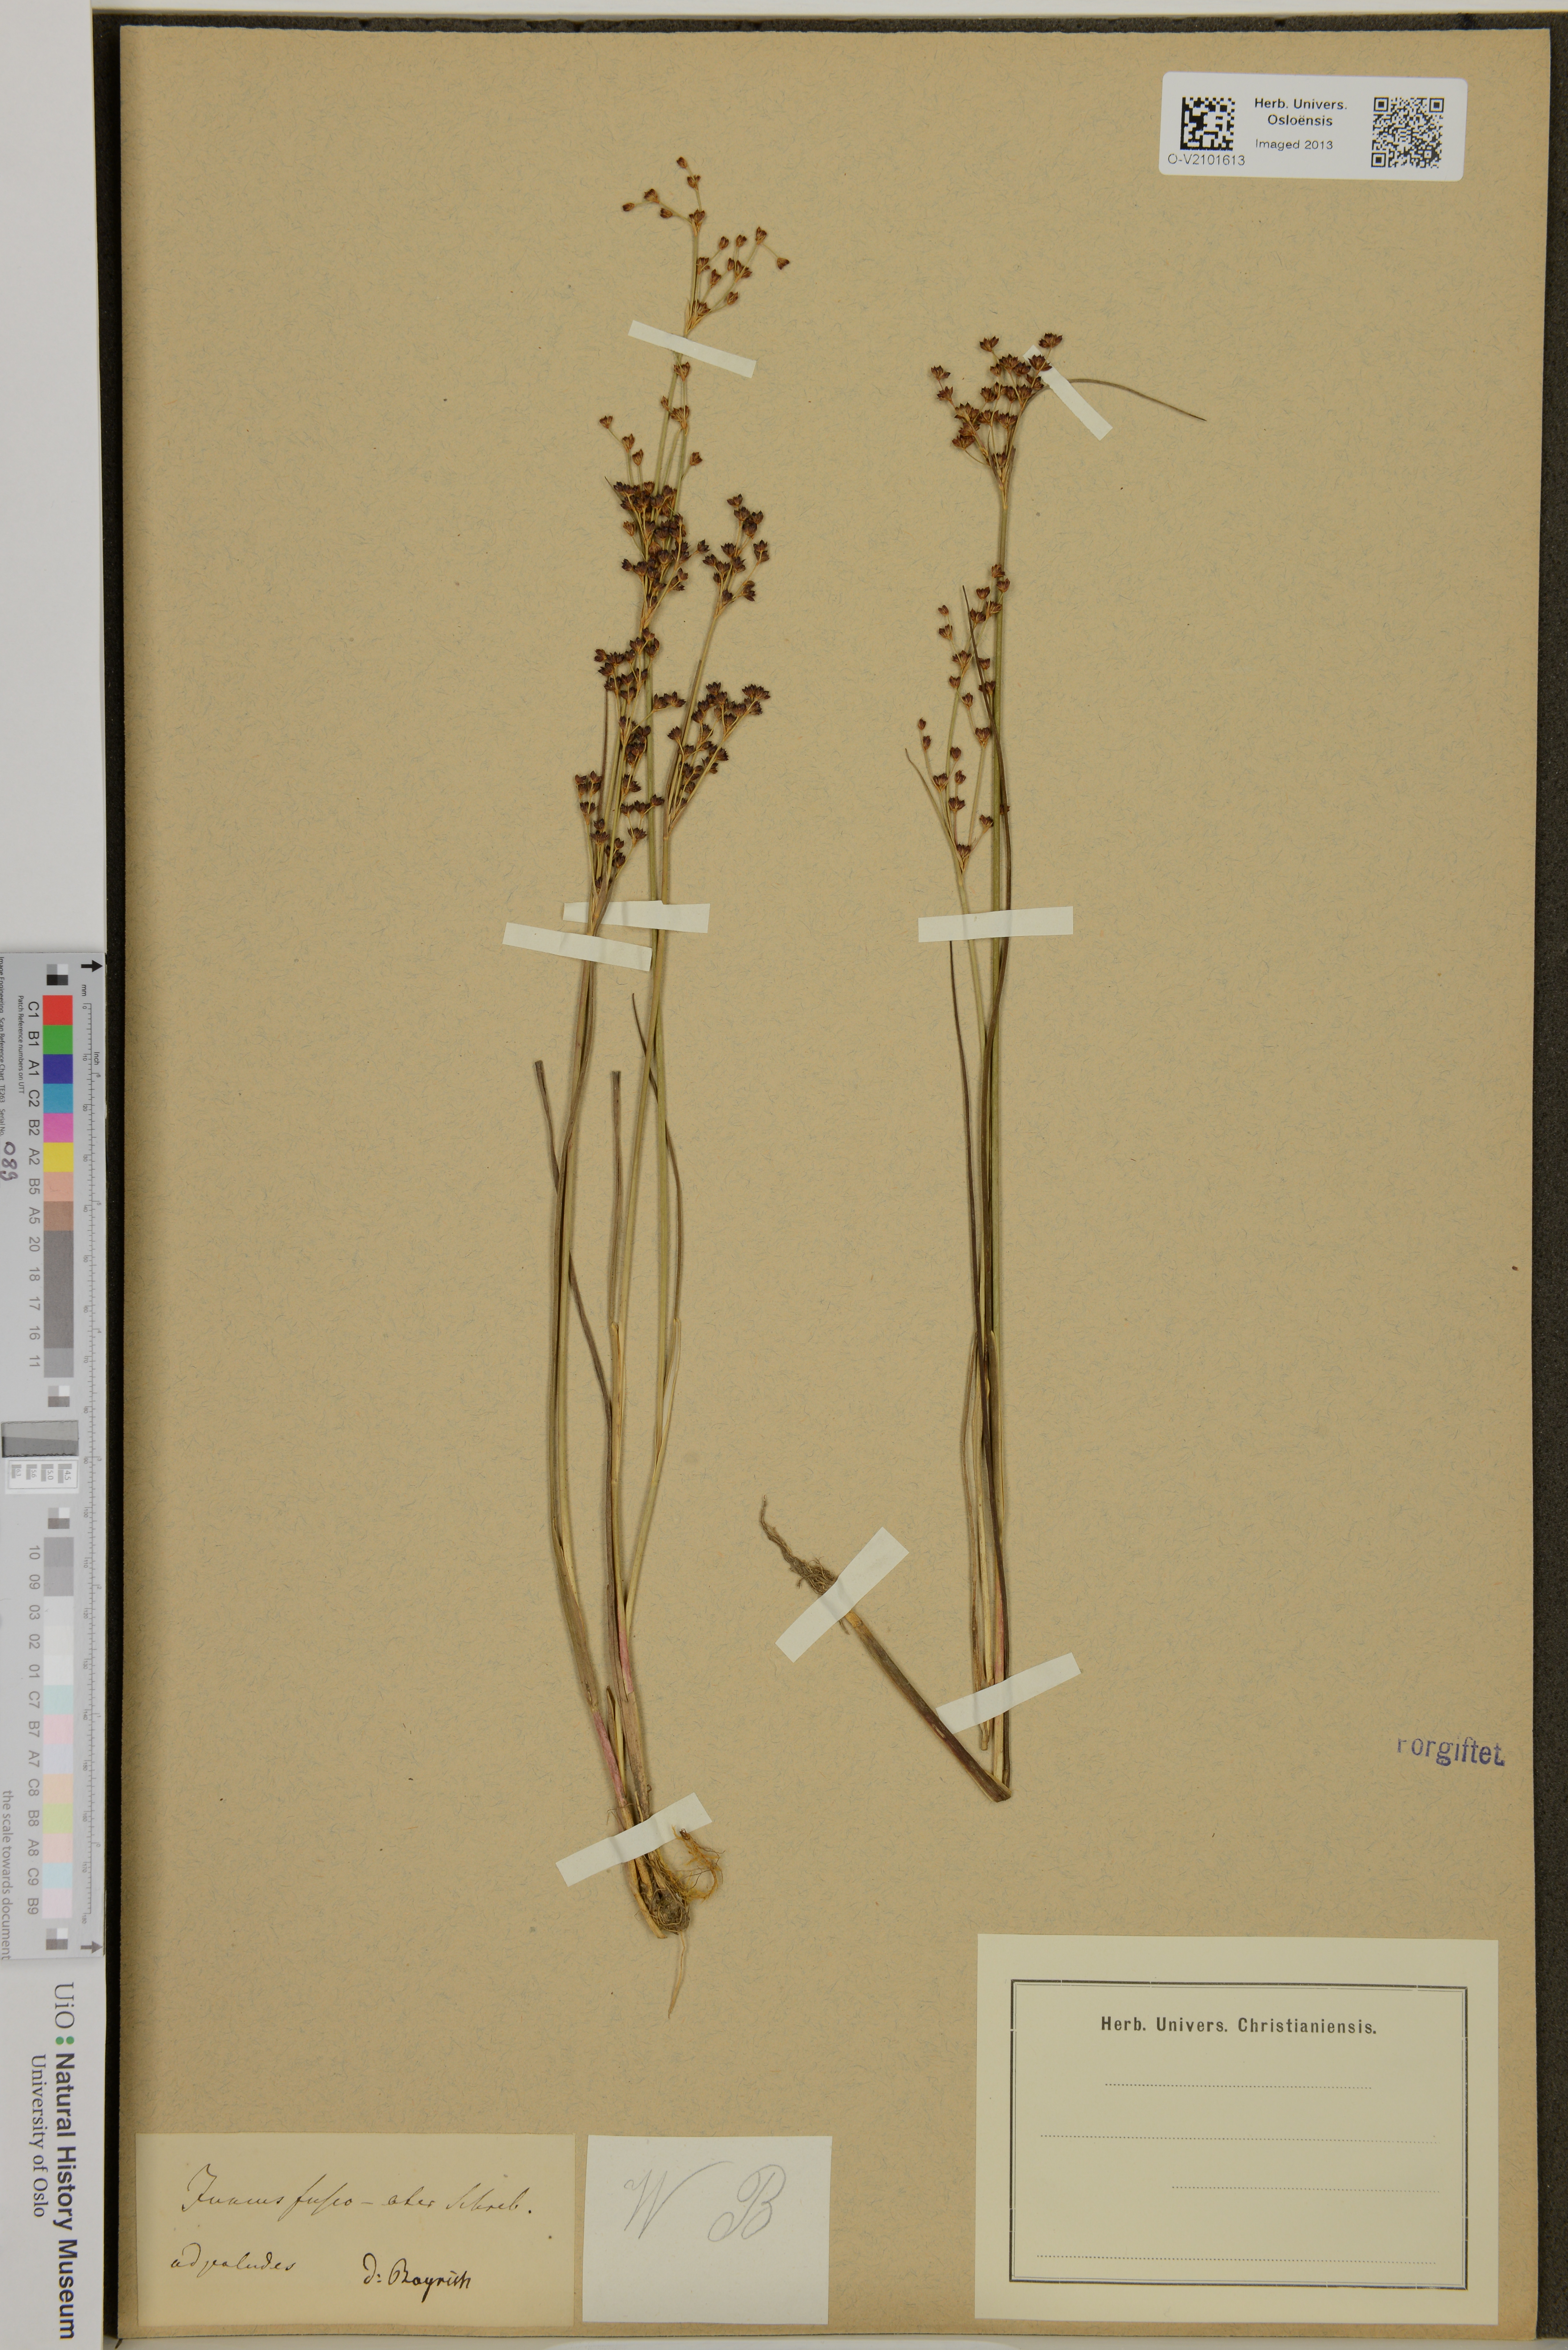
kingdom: Plantae
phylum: Tracheophyta
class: Liliopsida
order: Poales
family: Juncaceae
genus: Juncus
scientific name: Juncus alpinoarticulatus
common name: Alpine rush
